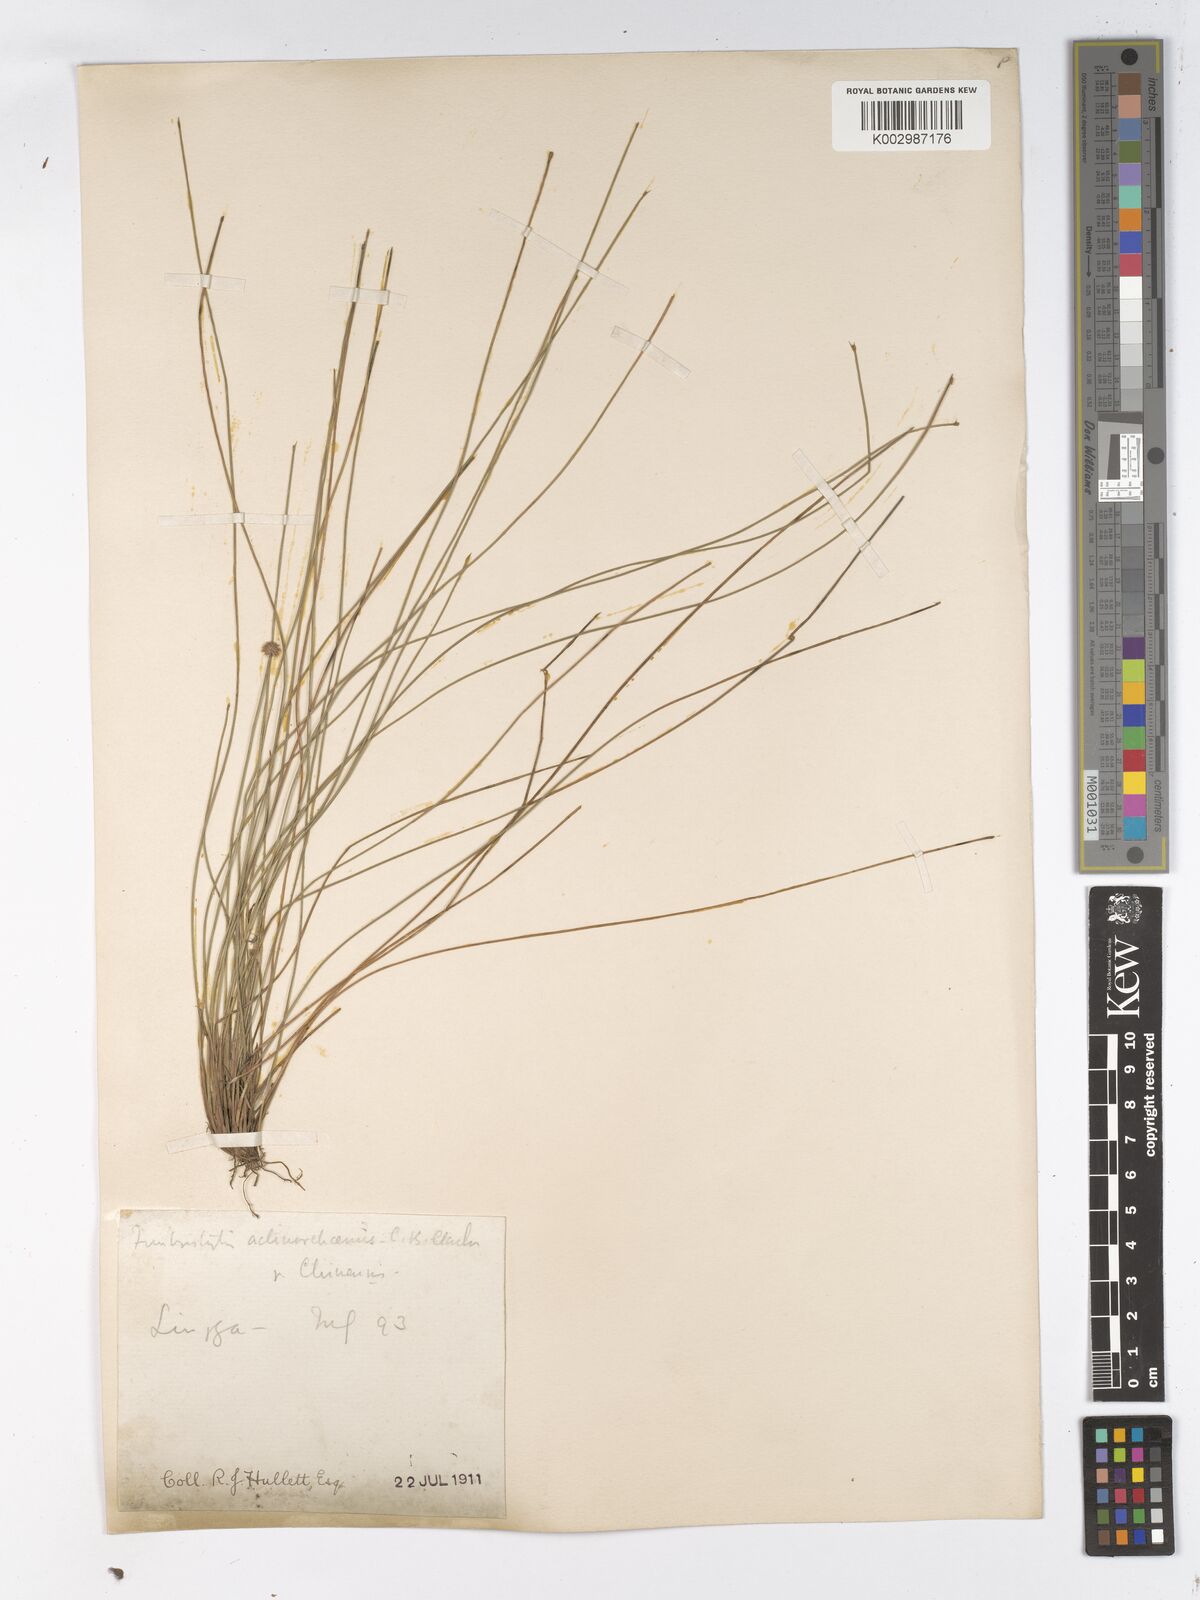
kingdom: Plantae
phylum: Tracheophyta
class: Liliopsida
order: Poales
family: Cyperaceae
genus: Actinoschoenus
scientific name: Actinoschoenus aphyllus
